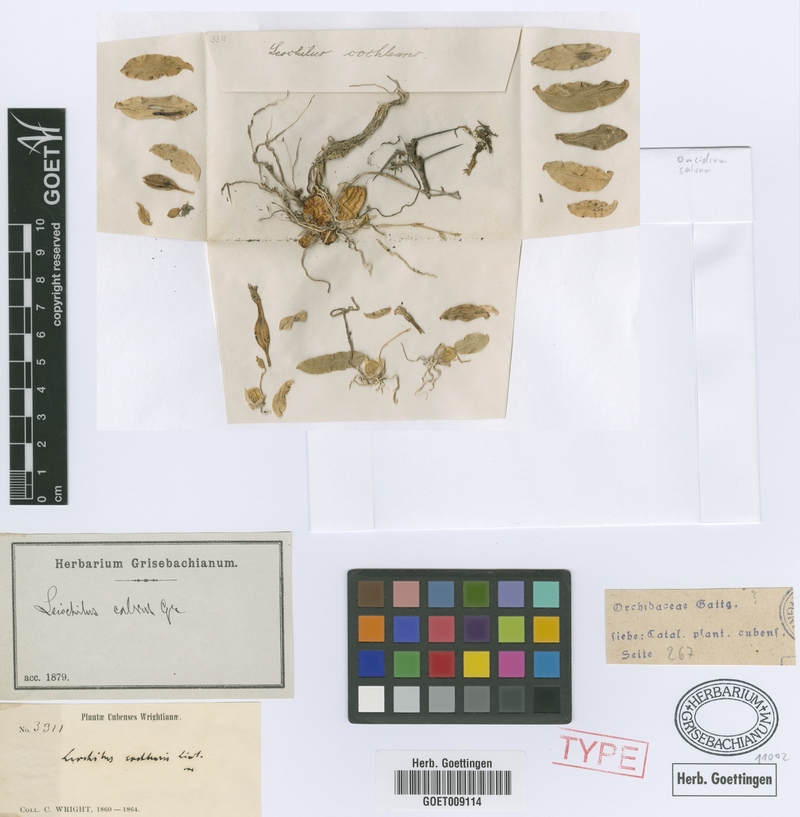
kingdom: Plantae
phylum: Tracheophyta
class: Liliopsida
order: Asparagales
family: Orchidaceae
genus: Leochilus
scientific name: Leochilus labiatus
